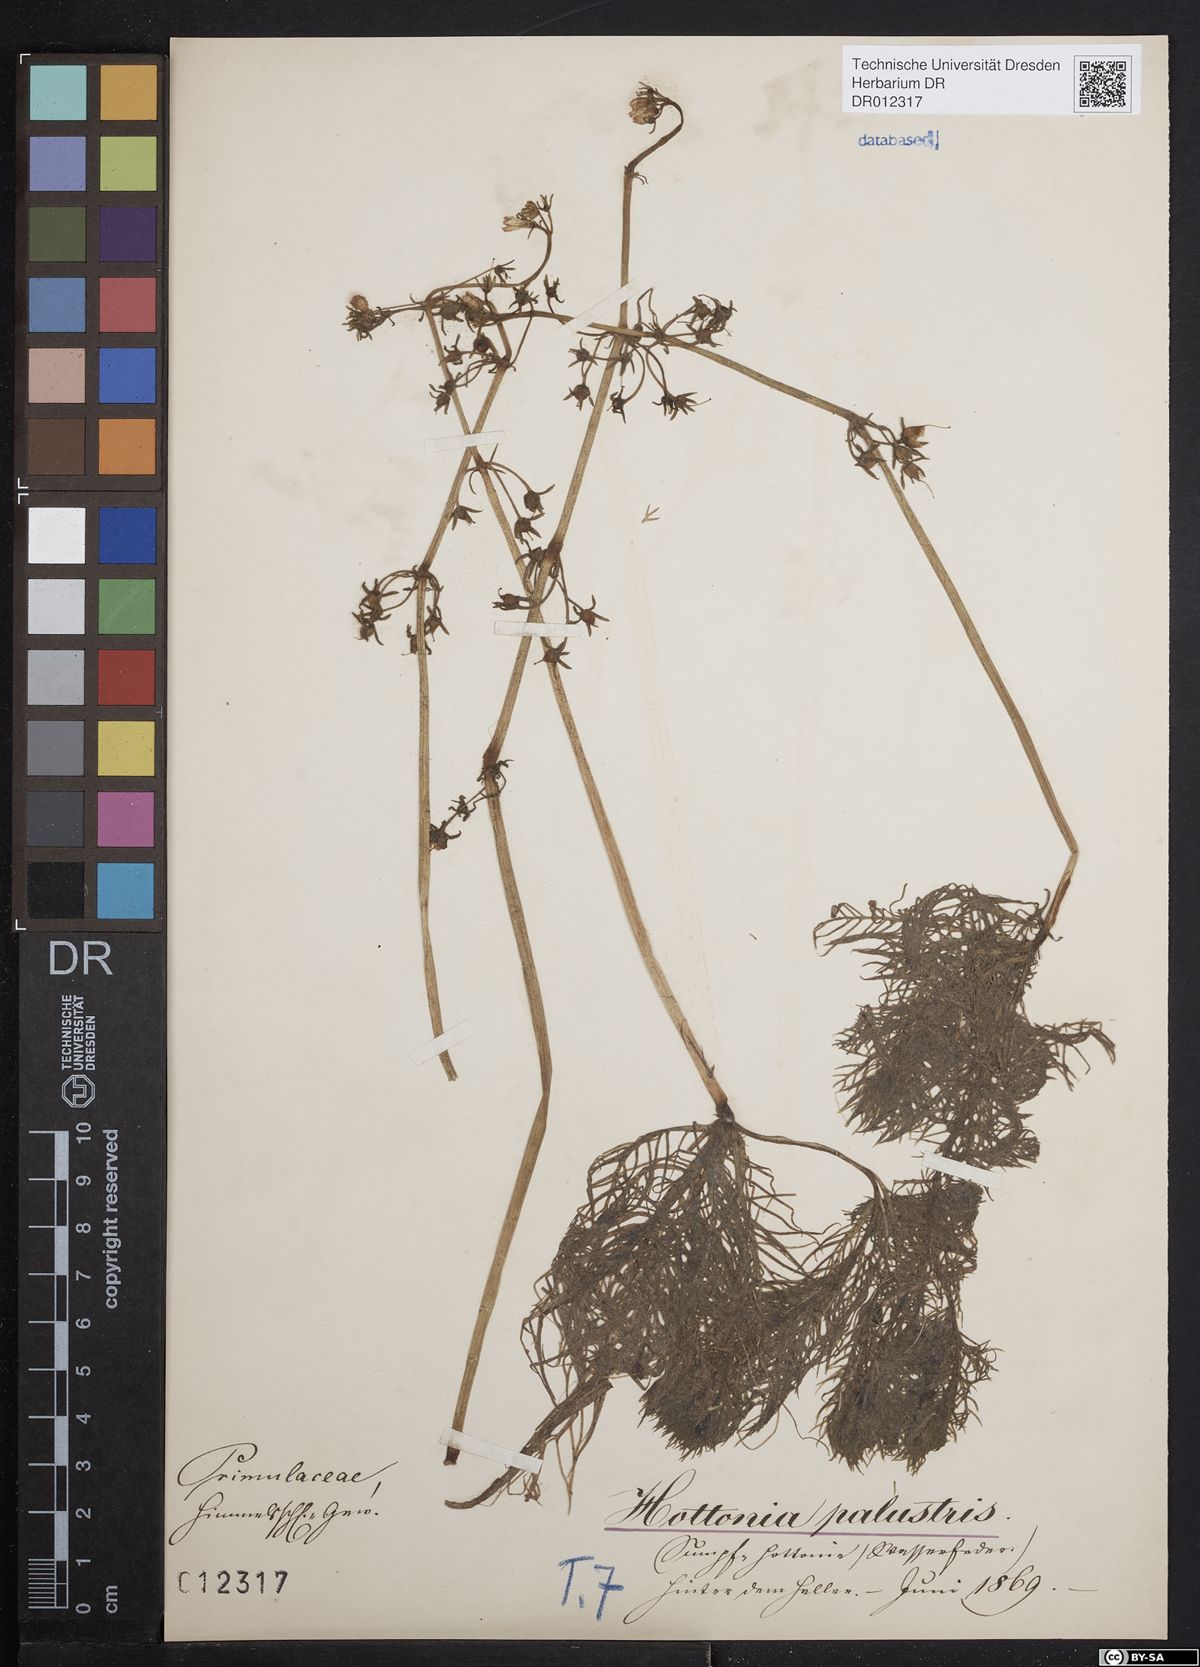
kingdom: Plantae
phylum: Tracheophyta
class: Magnoliopsida
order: Ericales
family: Primulaceae
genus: Hottonia
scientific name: Hottonia palustris
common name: Water-violet
